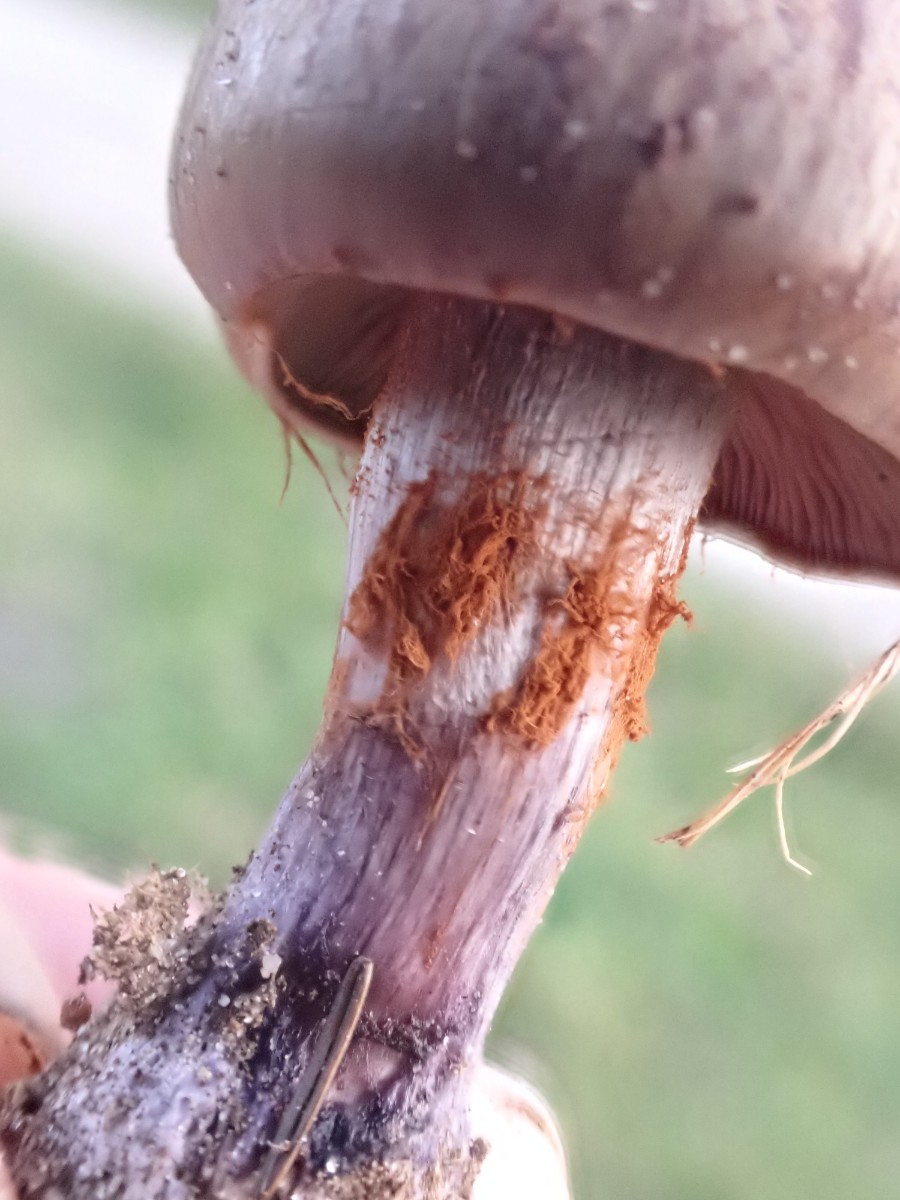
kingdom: Fungi
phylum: Basidiomycota
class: Agaricomycetes
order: Agaricales
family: Cortinariaceae
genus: Thaxterogaster
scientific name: Thaxterogaster purpurascens
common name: purpurbrun slørhat
